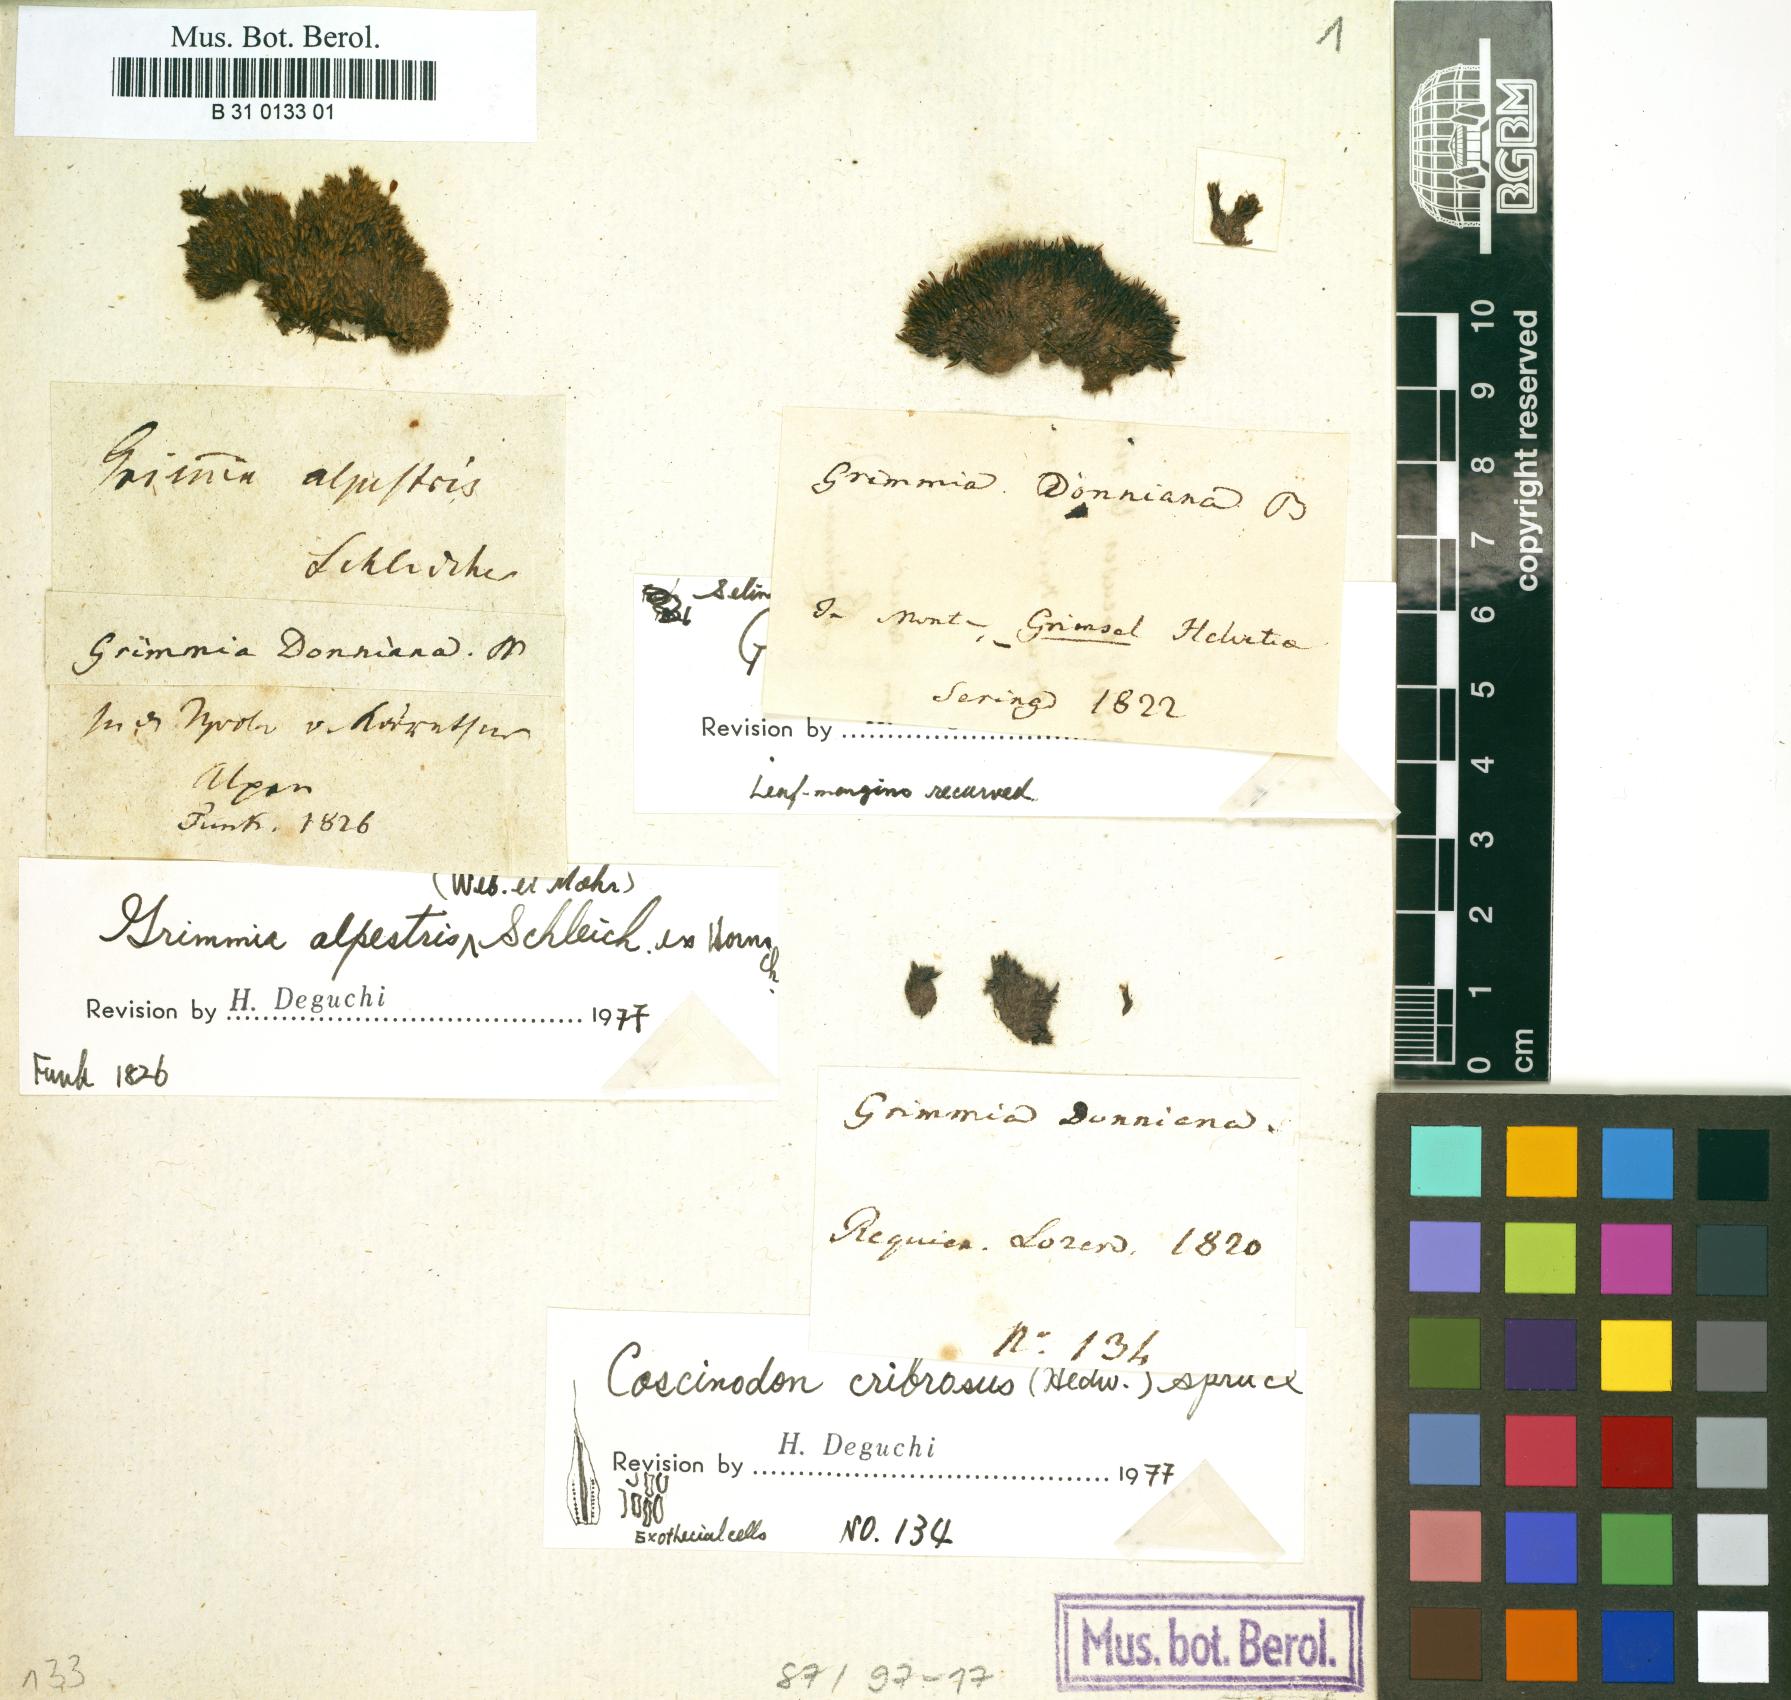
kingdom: Plantae
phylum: Bryophyta
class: Bryopsida
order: Grimmiales
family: Grimmiaceae
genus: Grimmia
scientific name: Grimmia reflexidens
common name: Alpine grimmia
